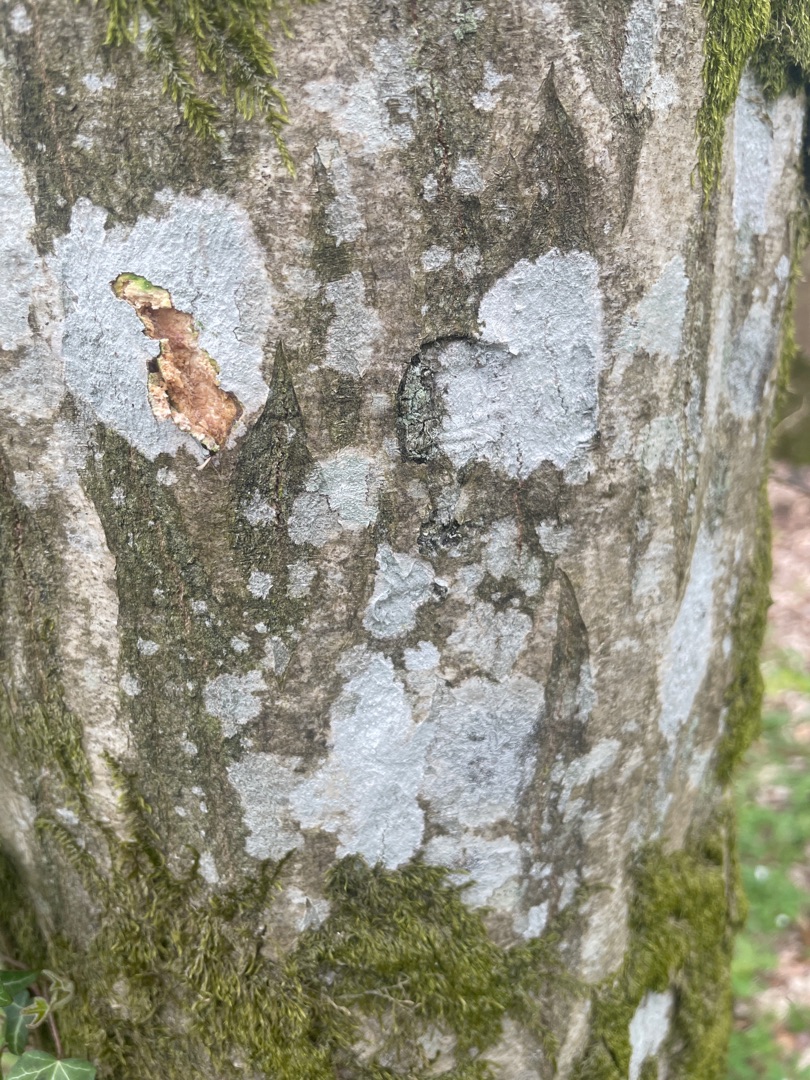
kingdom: Fungi
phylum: Ascomycota
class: Arthoniomycetes
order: Arthoniales
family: Arthoniaceae
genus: Arthothelium
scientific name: Arthothelium ruanum
